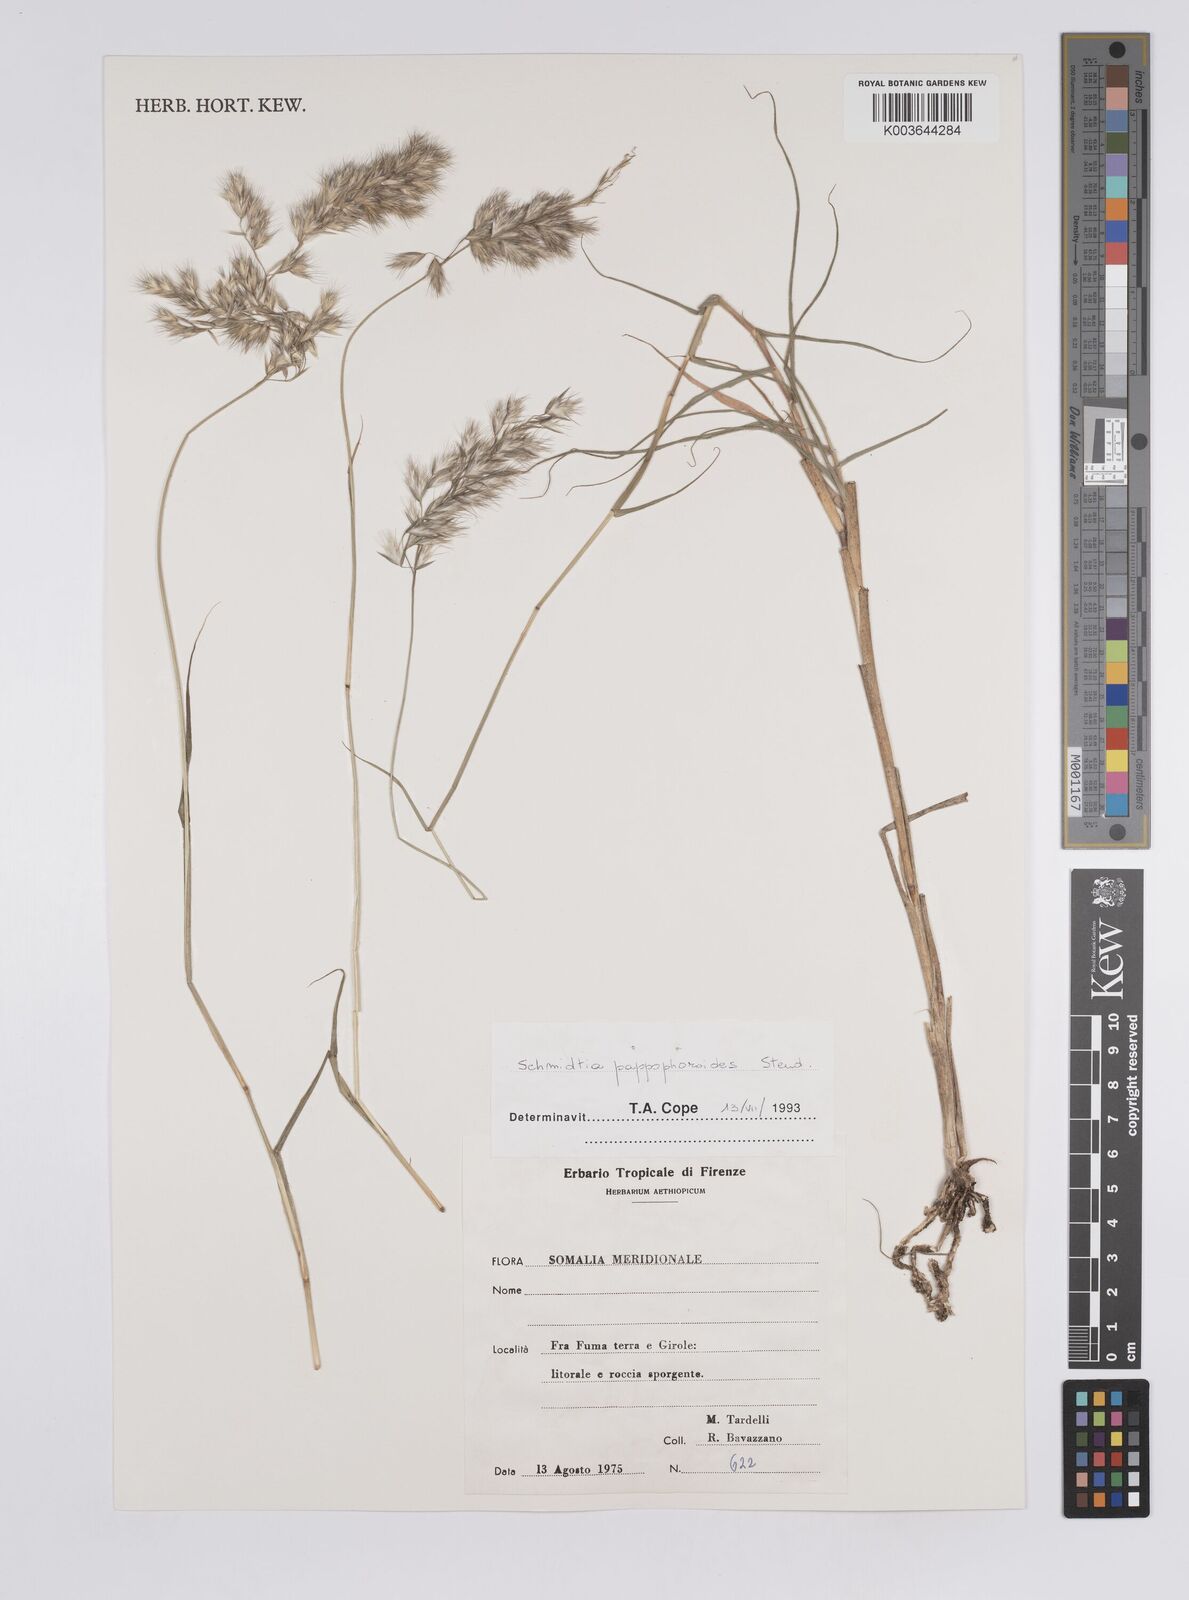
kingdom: Plantae
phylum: Tracheophyta
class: Liliopsida
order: Poales
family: Poaceae
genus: Schmidtia
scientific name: Schmidtia pappophoroides
